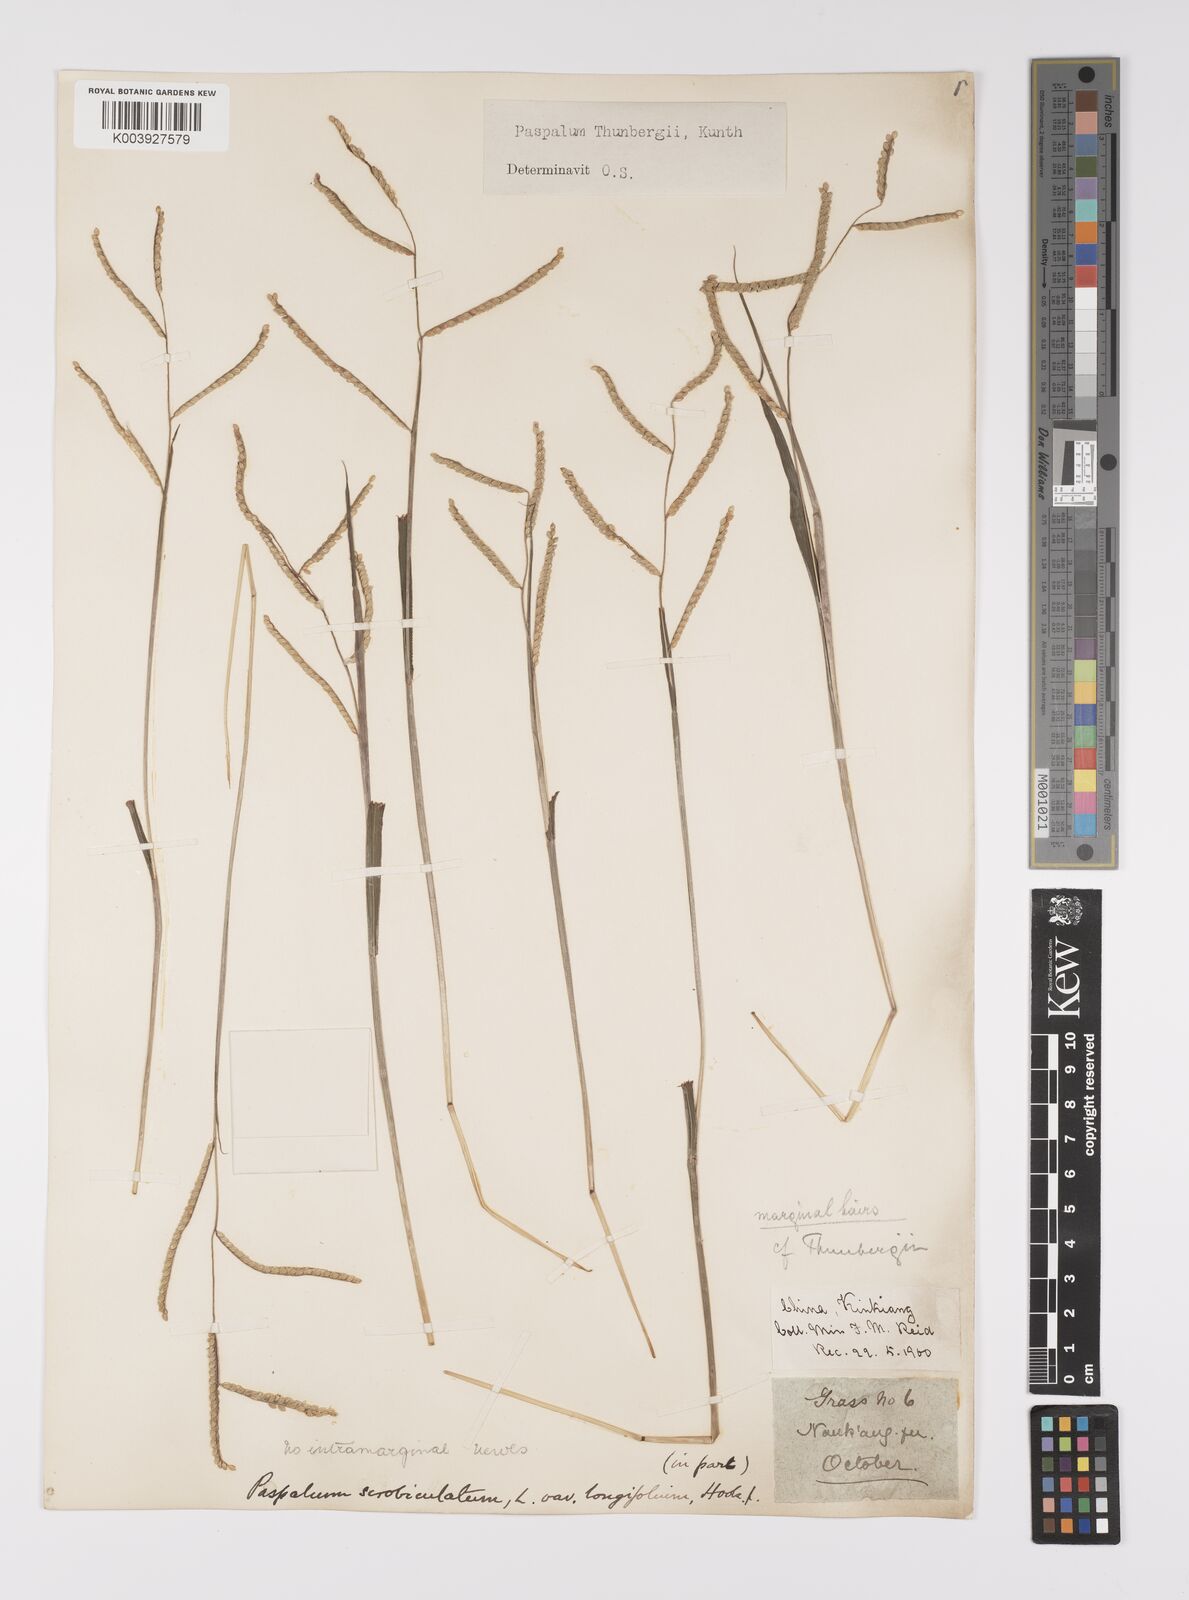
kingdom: Plantae
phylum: Tracheophyta
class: Liliopsida
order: Poales
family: Poaceae
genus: Paspalum
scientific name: Paspalum thunbergii
